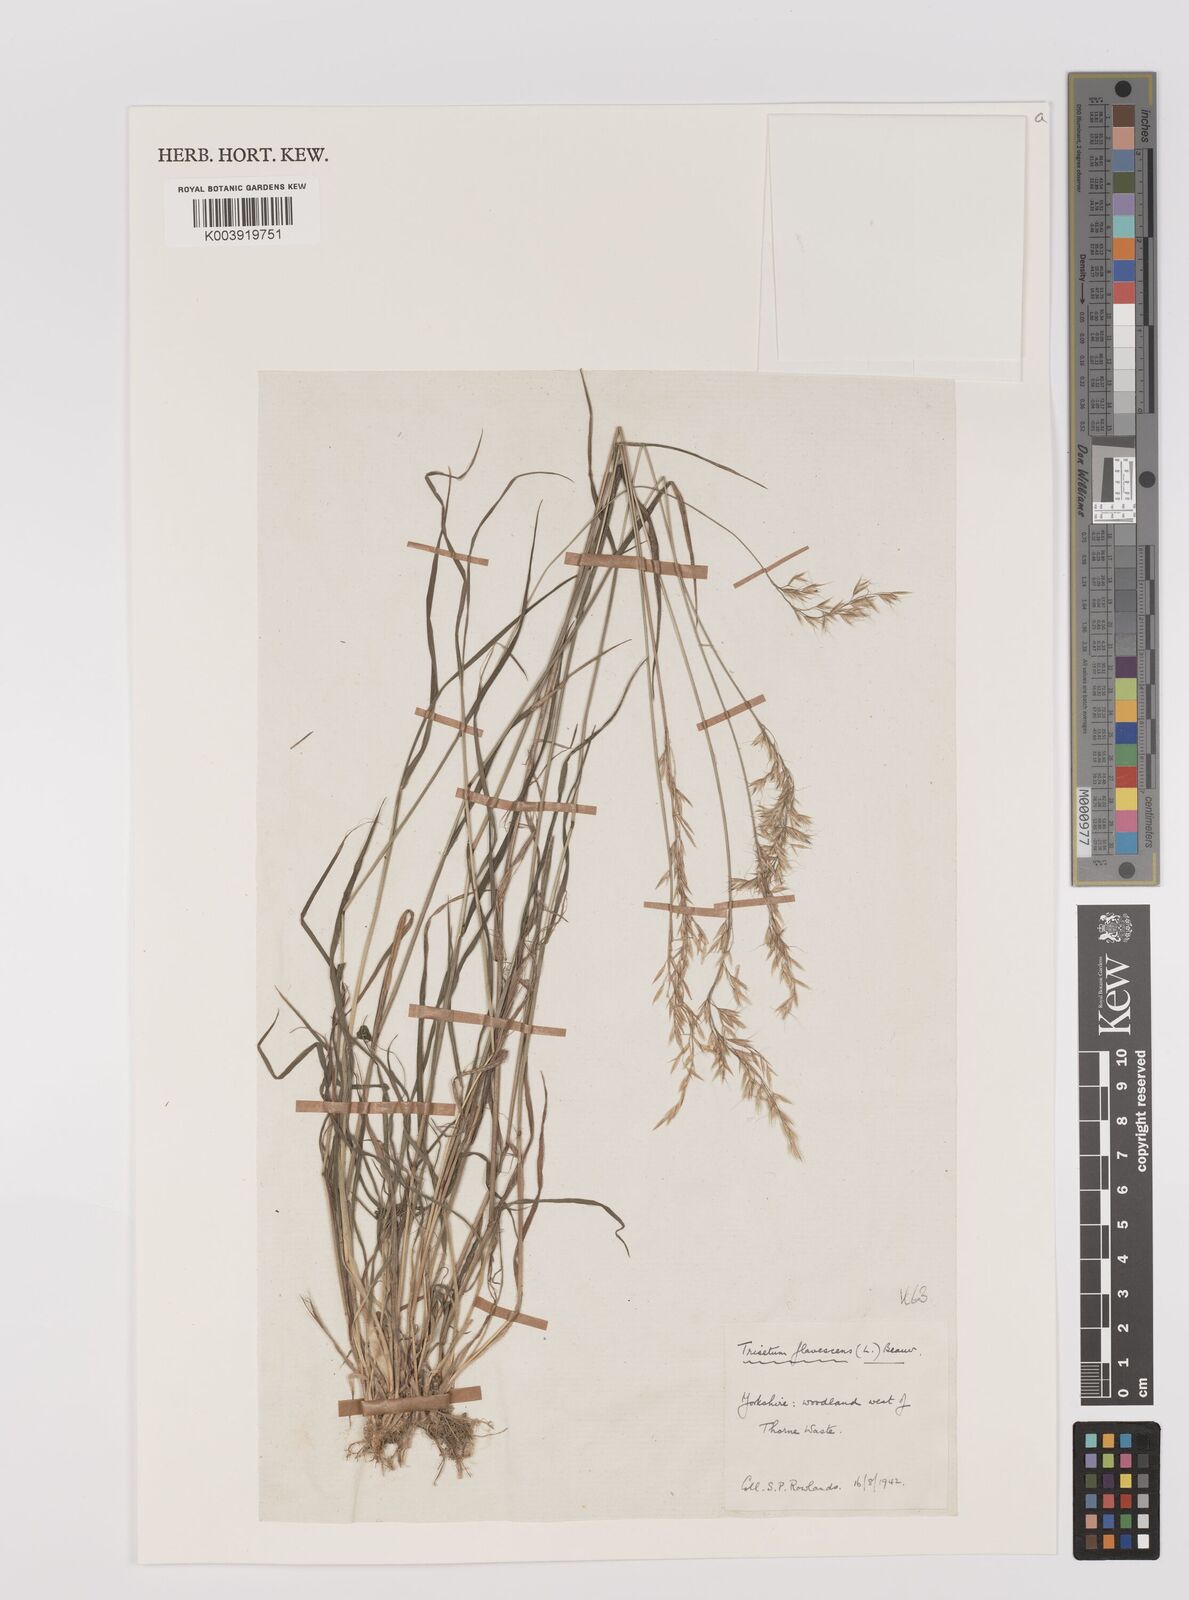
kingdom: Plantae
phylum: Tracheophyta
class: Liliopsida
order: Poales
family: Poaceae
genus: Trisetum
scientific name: Trisetum flavescens
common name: Yellow oat-grass
